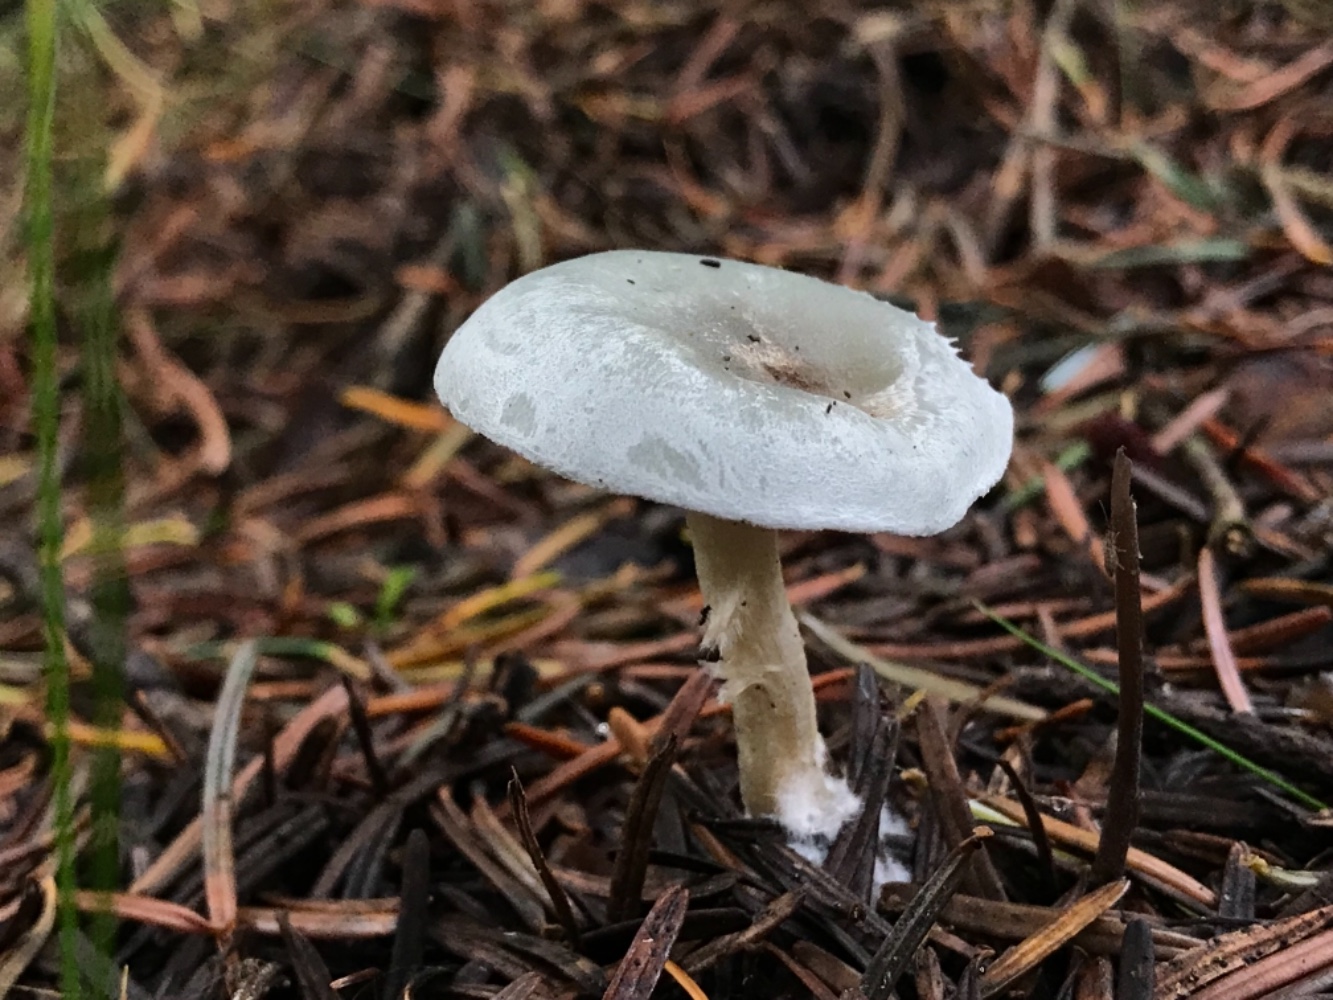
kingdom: Fungi
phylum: Basidiomycota
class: Agaricomycetes
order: Agaricales
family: Tricholomataceae
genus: Clitocybe
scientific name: Clitocybe odora
